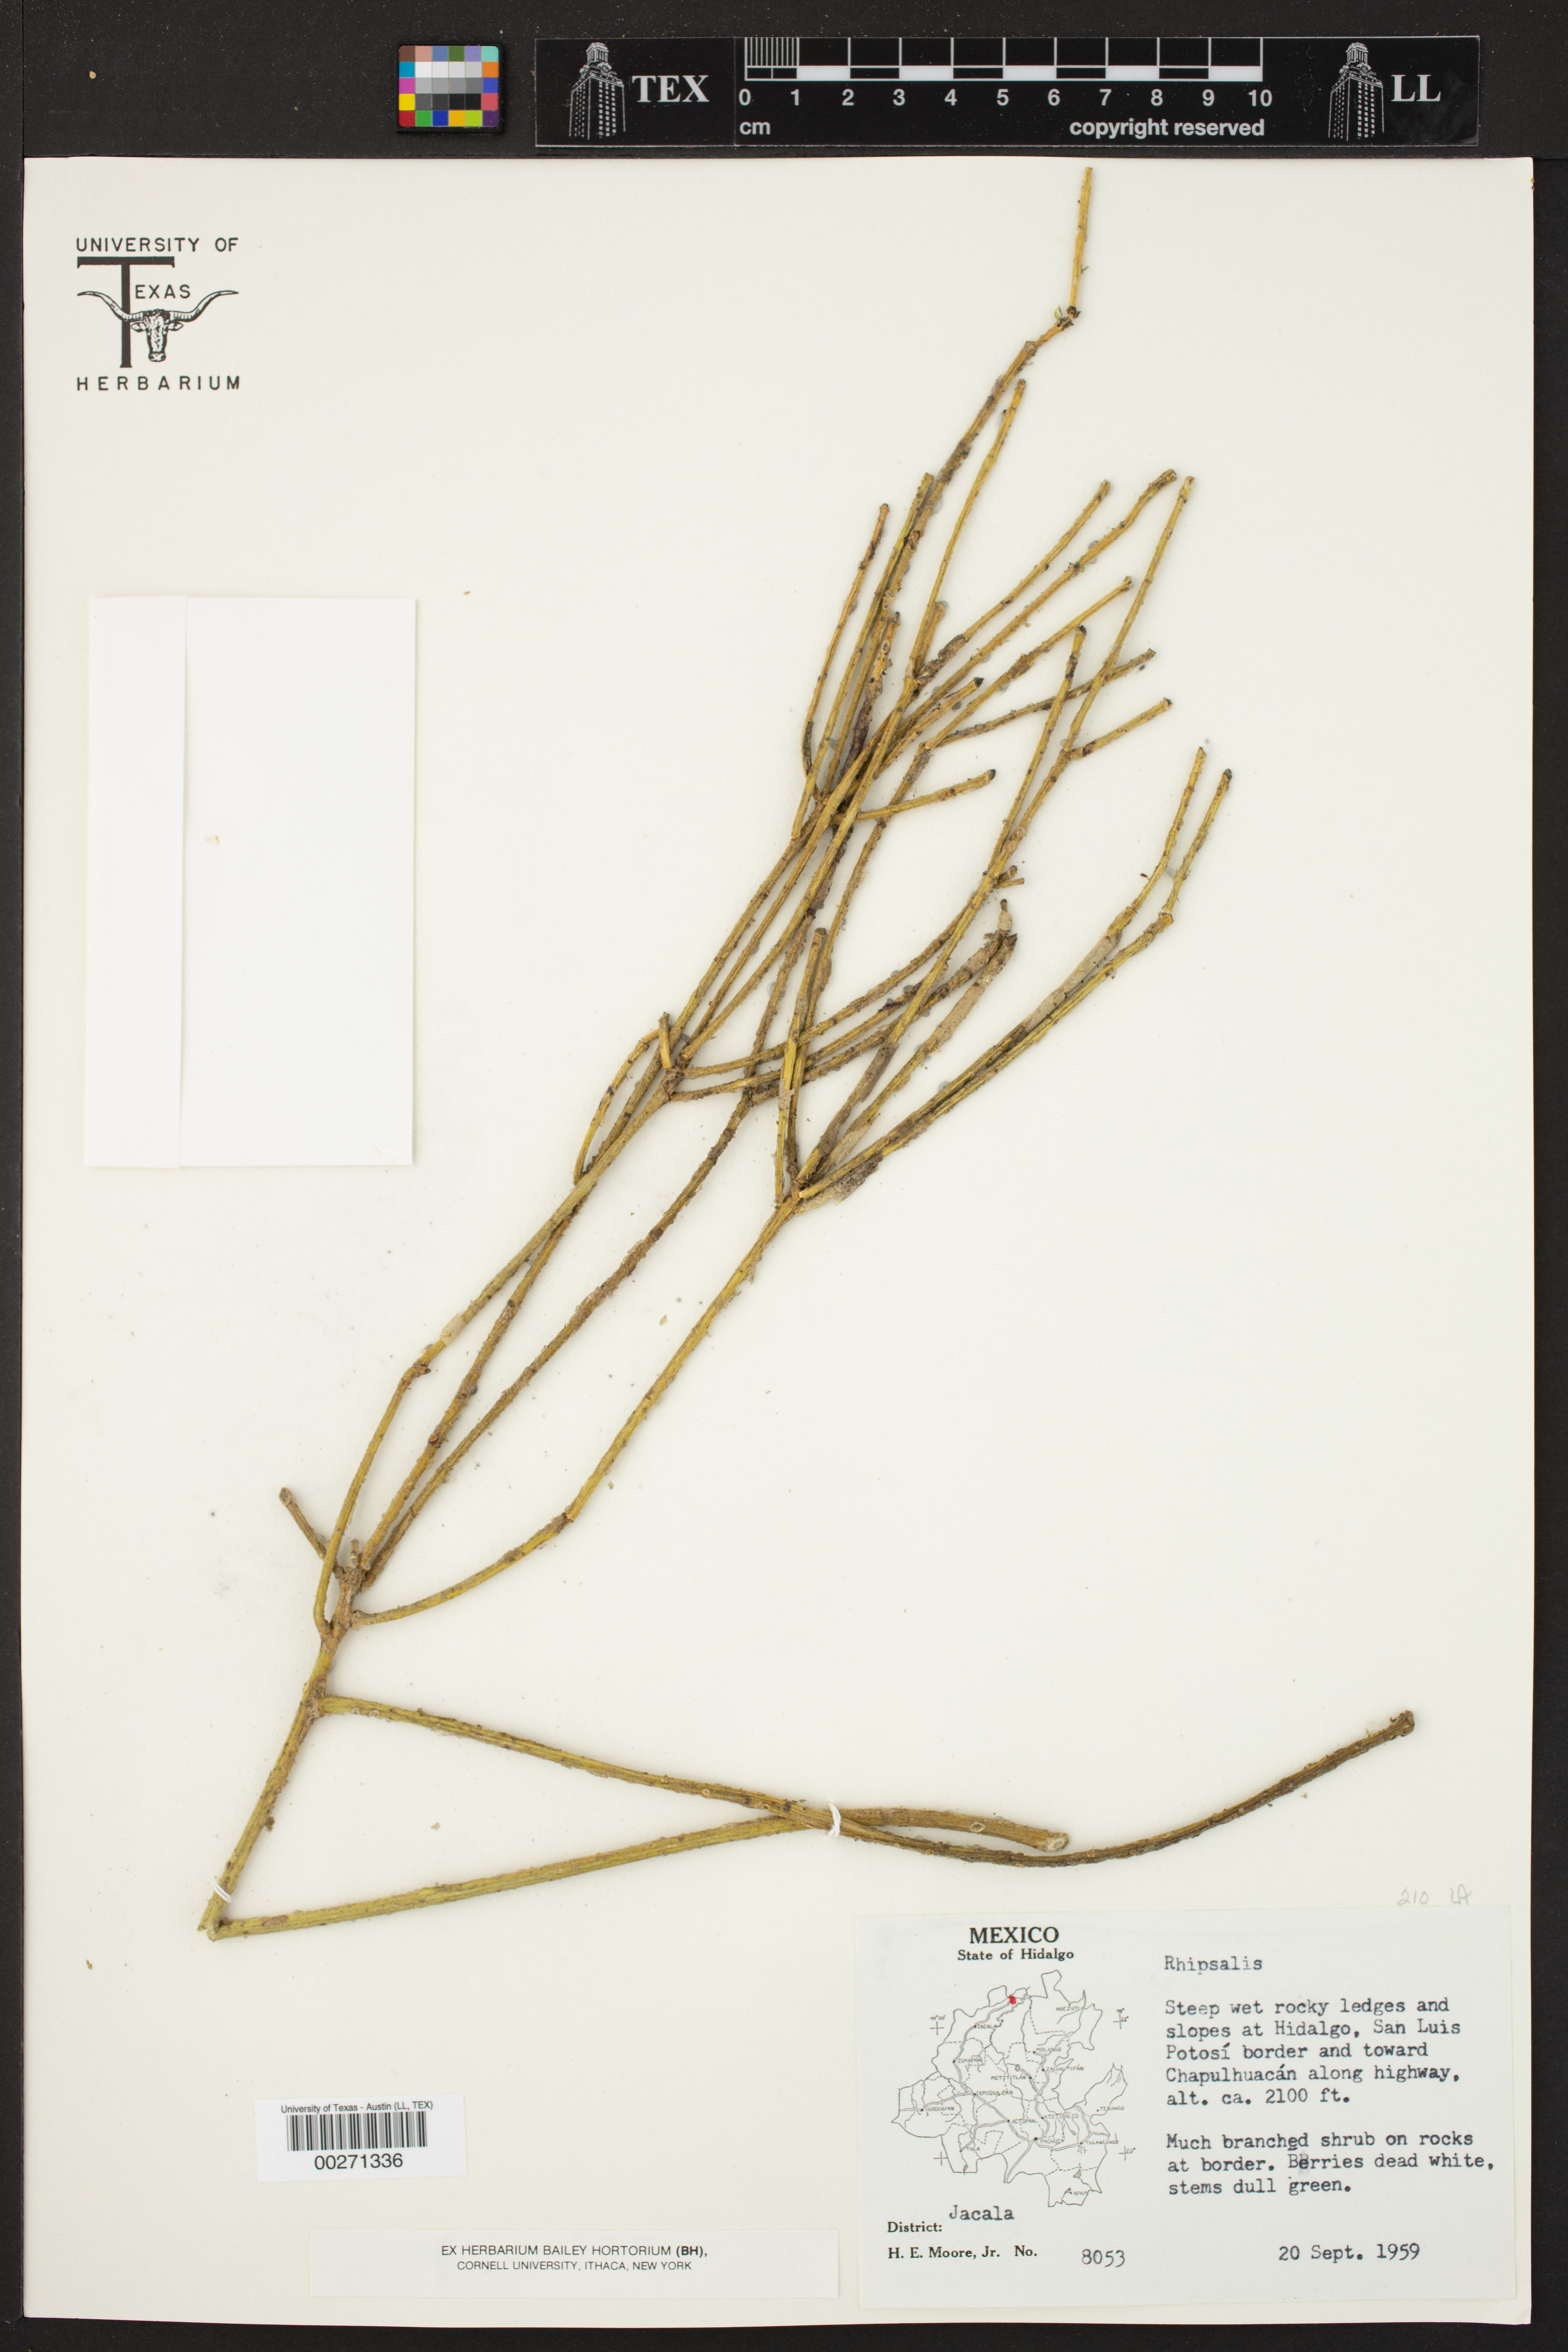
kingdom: Plantae
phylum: Tracheophyta
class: Magnoliopsida
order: Caryophyllales
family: Cactaceae
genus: Rhipsalis
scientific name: Rhipsalis
